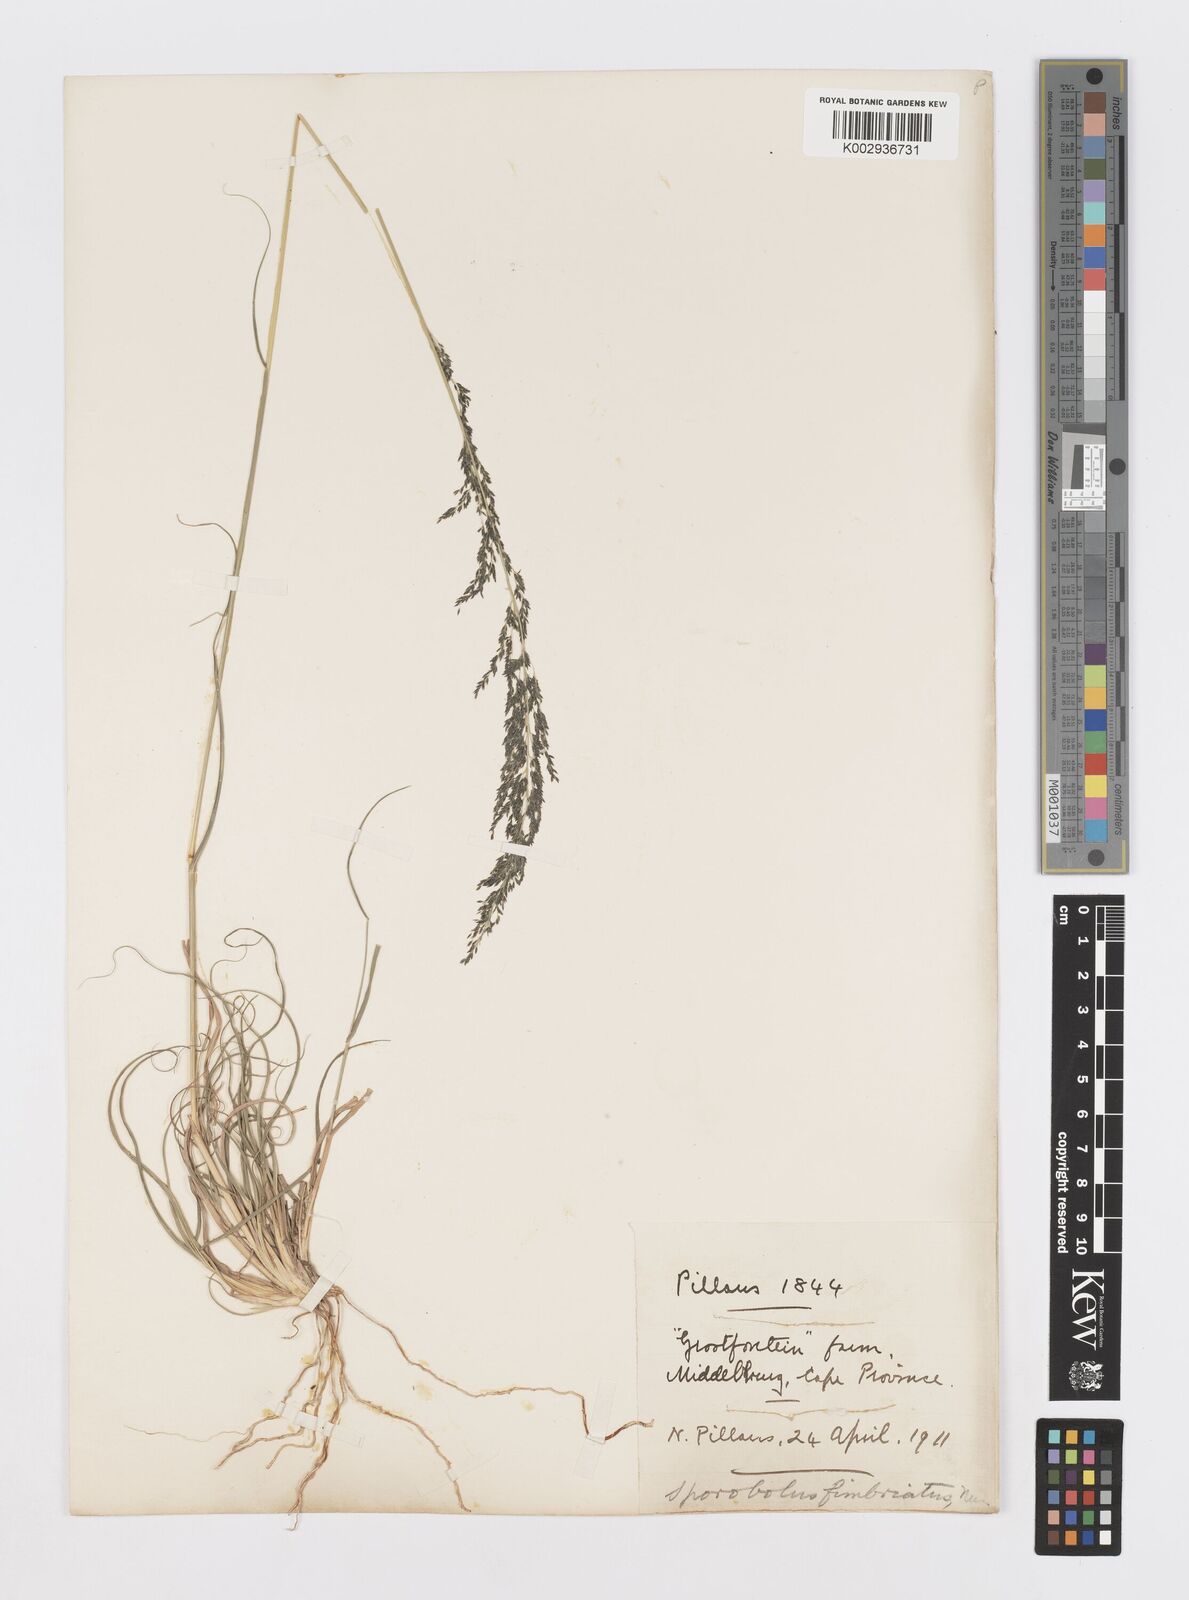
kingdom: Plantae
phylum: Tracheophyta
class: Liliopsida
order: Poales
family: Poaceae
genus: Sporobolus
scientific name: Sporobolus fimbriatus
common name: Fringed dropseed
